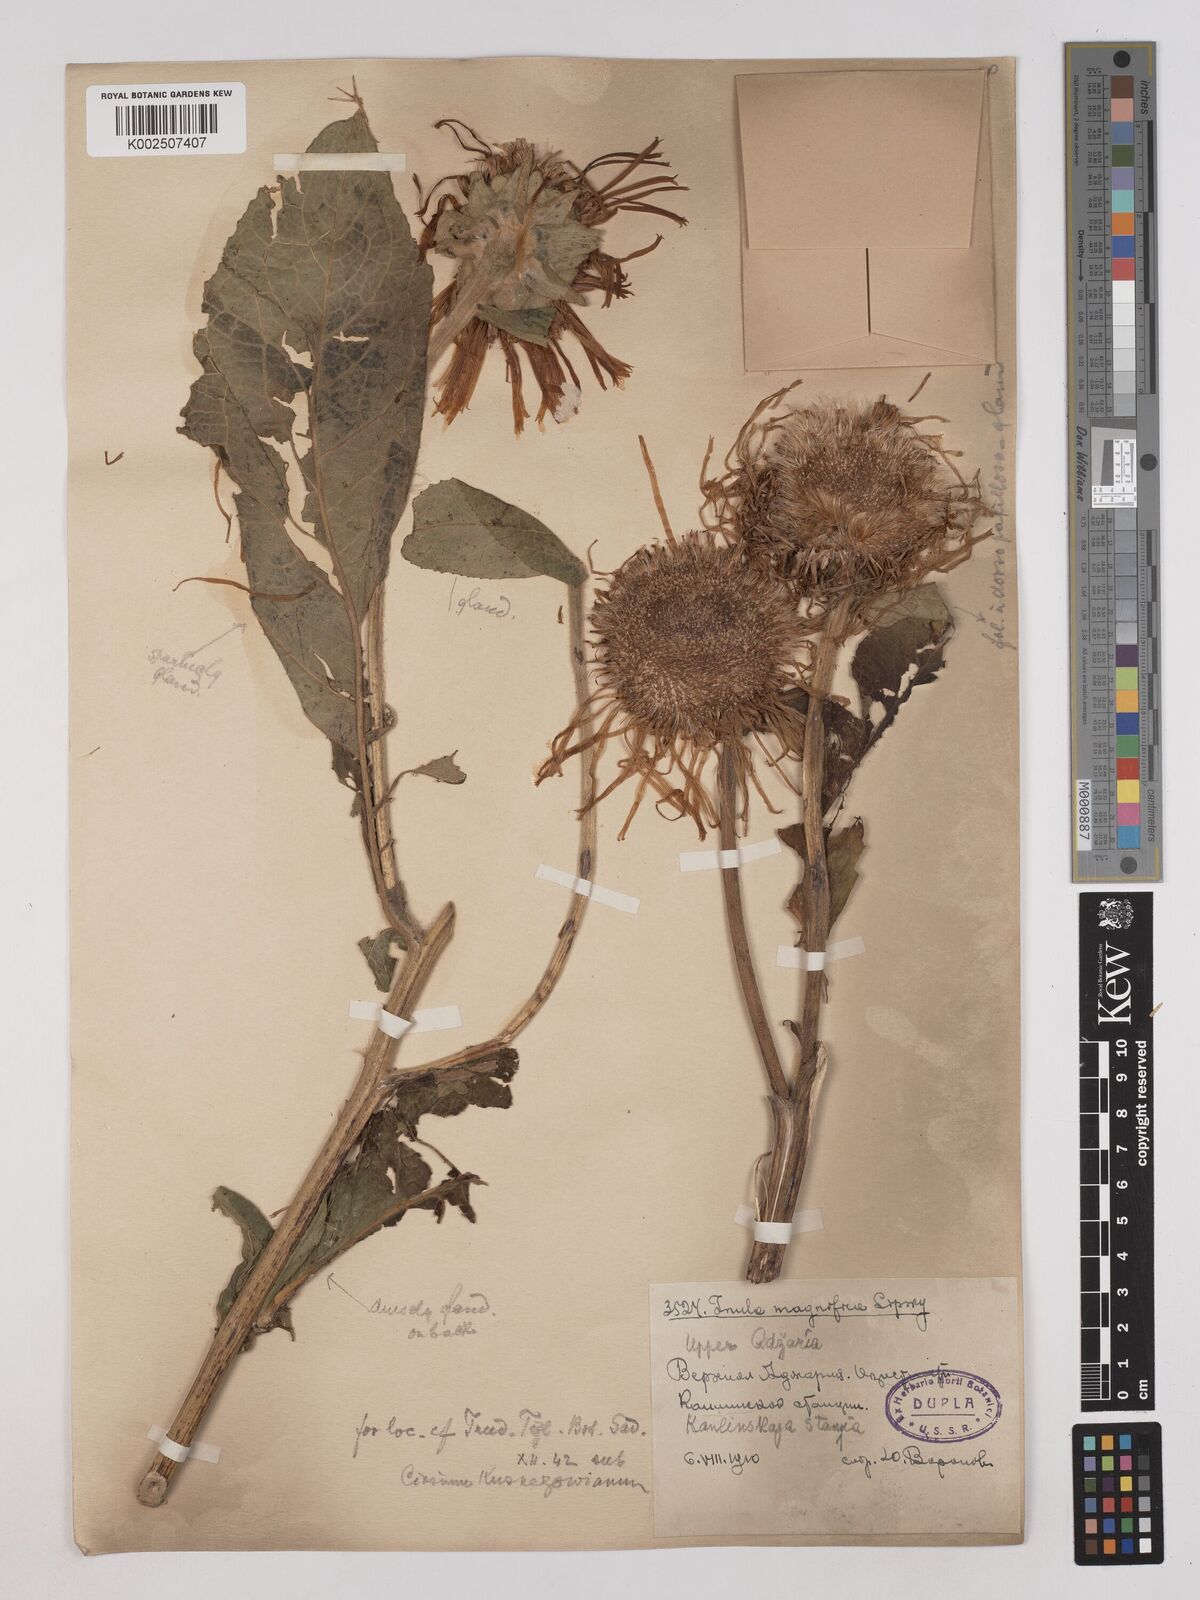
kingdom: Plantae
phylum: Tracheophyta
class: Magnoliopsida
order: Asterales
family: Asteraceae
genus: Inula
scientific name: Inula magnifica
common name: Giant fleabane
